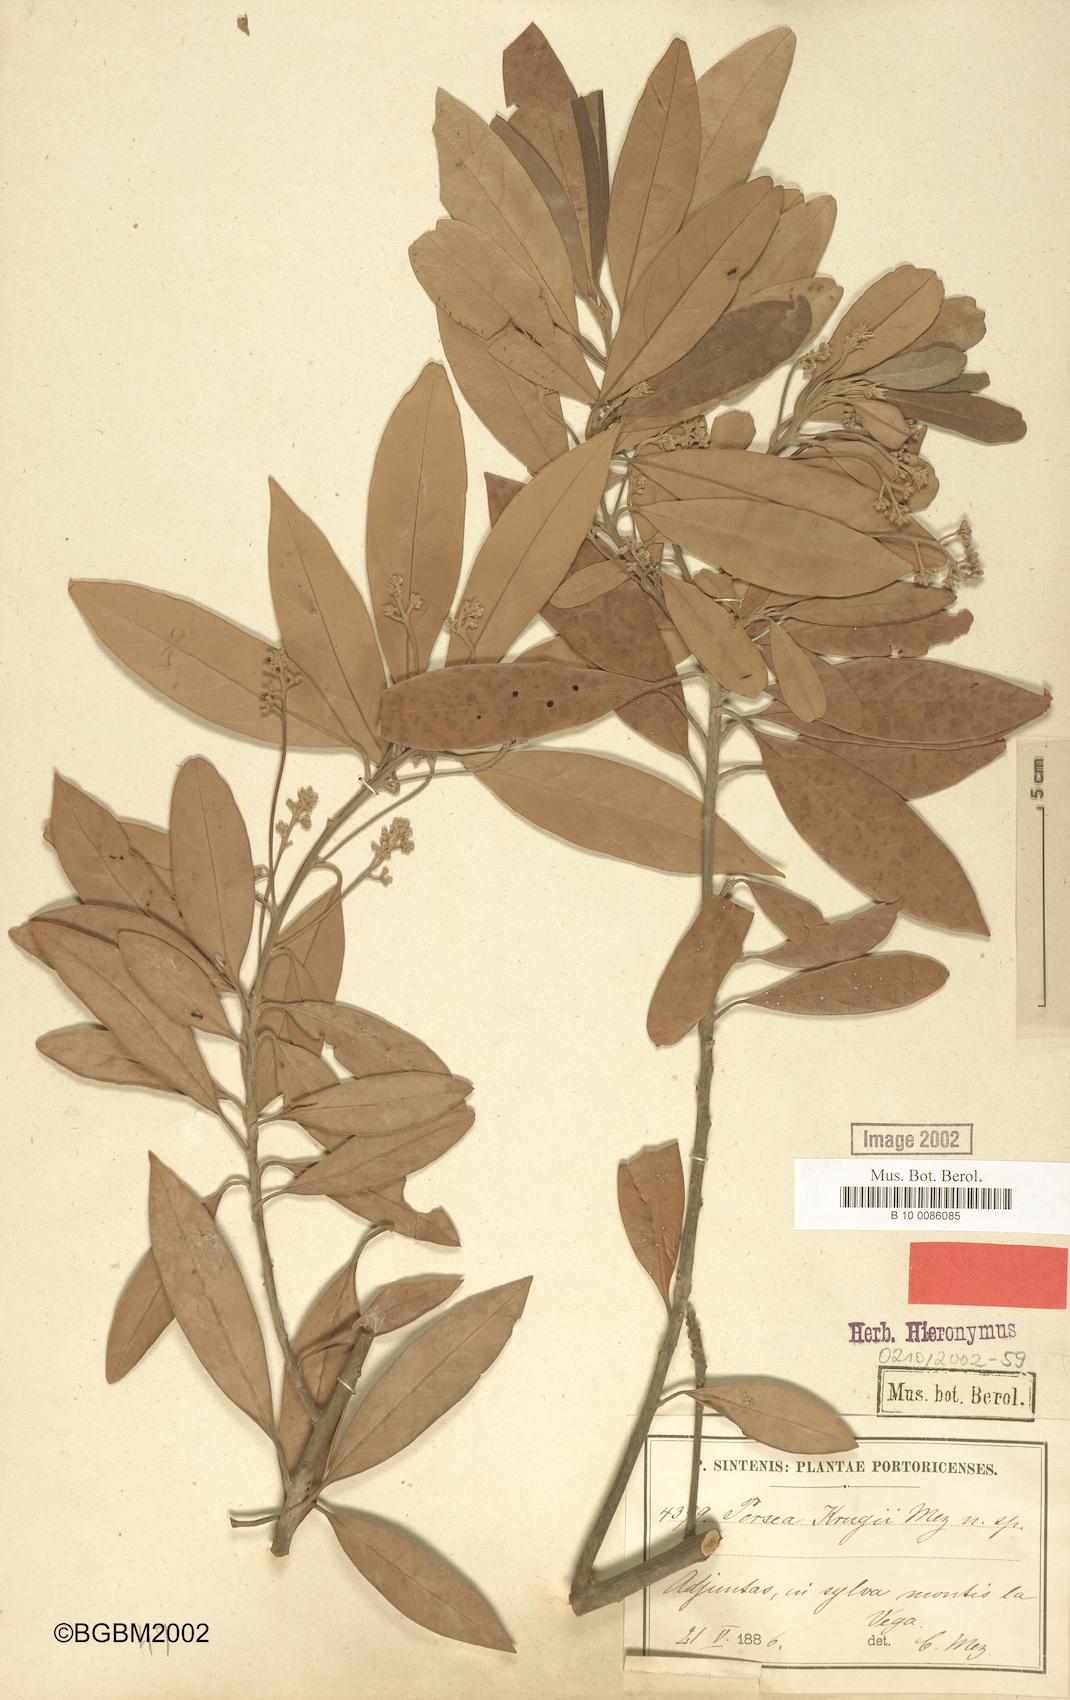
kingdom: Plantae
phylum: Tracheophyta
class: Magnoliopsida
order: Laurales
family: Lauraceae
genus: Persea
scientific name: Persea krugii
